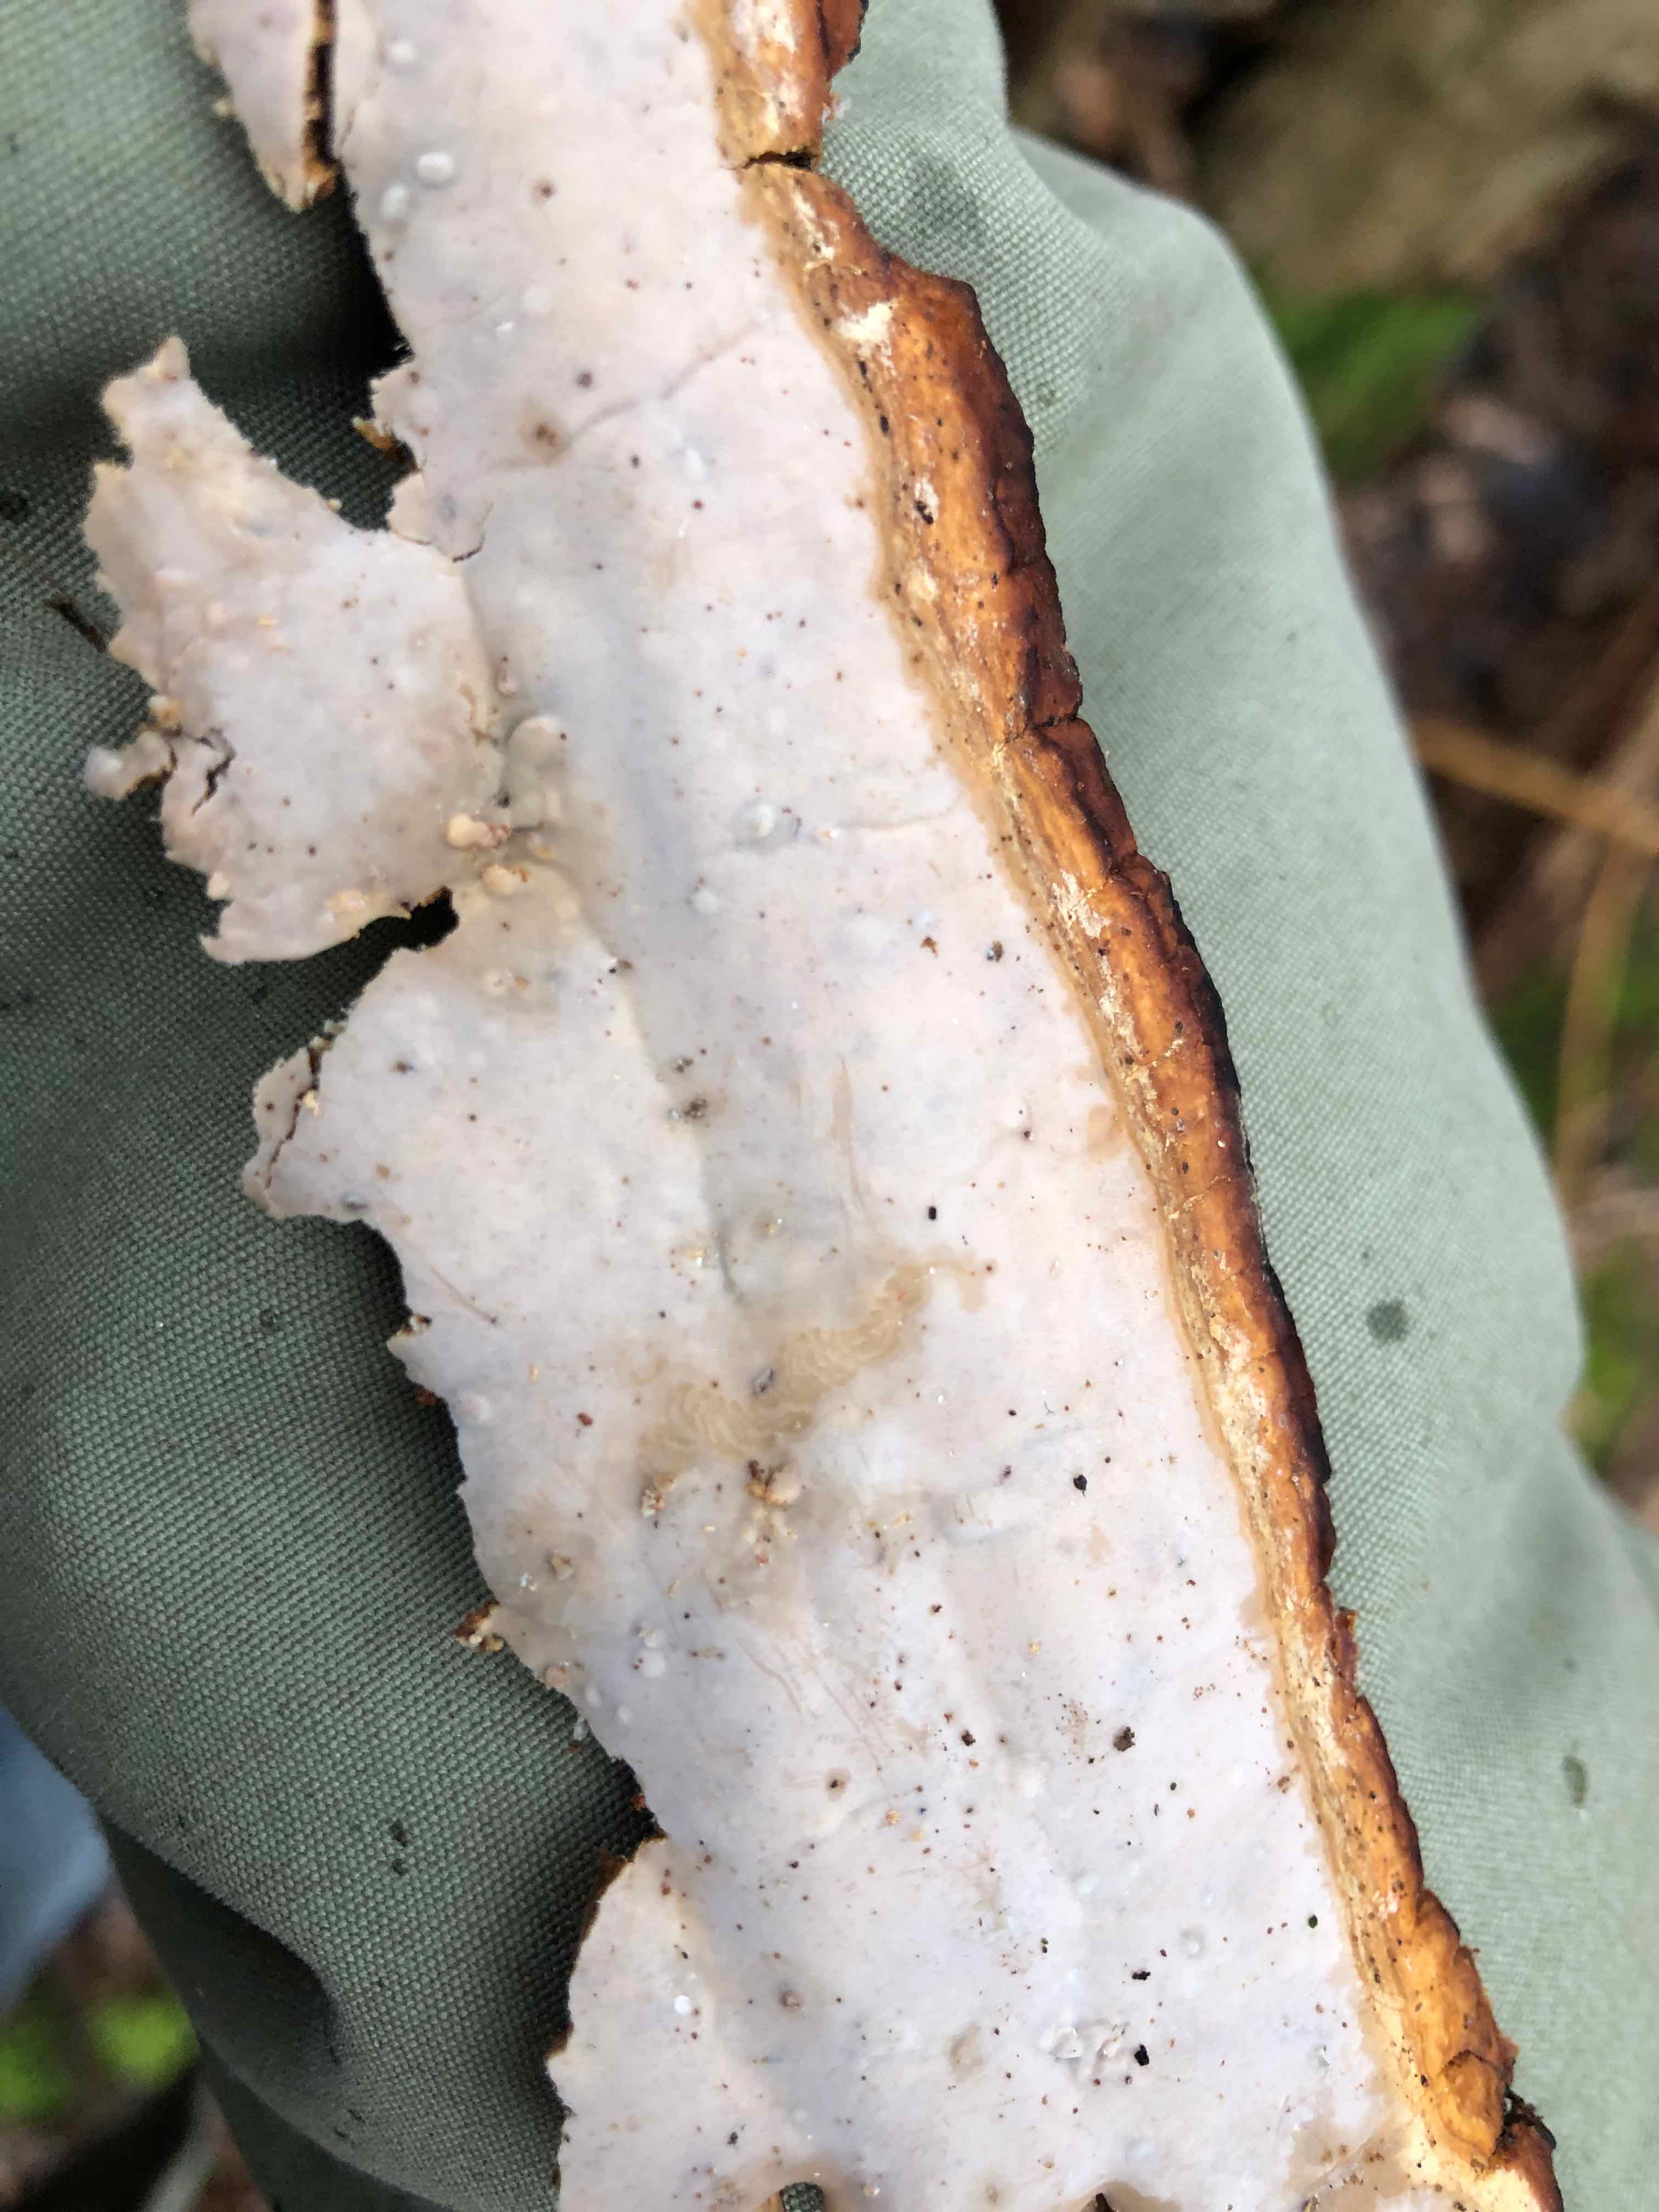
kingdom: Fungi
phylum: Basidiomycota
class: Agaricomycetes
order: Russulales
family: Peniophoraceae
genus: Scytinostroma
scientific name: Scytinostroma hemidichophyticum
